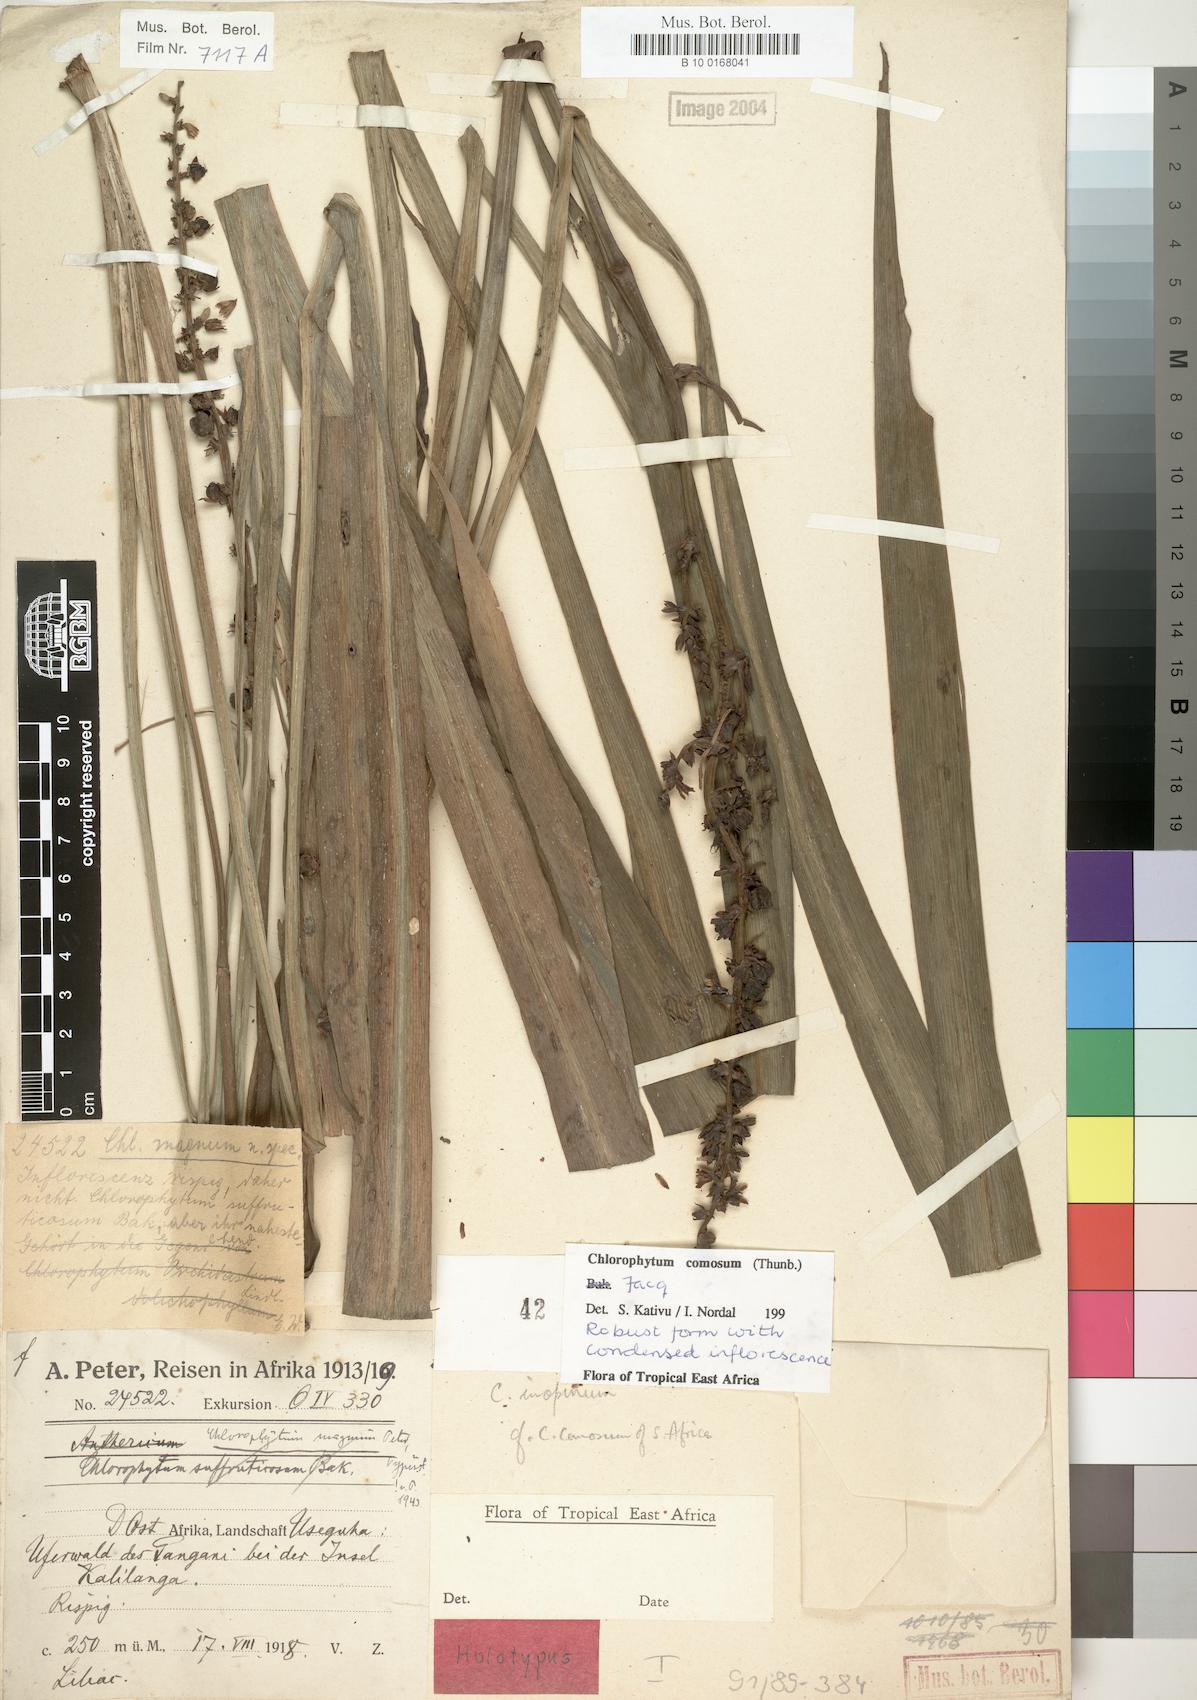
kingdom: Plantae
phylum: Tracheophyta
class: Liliopsida
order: Asparagales
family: Asparagaceae
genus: Chlorophytum
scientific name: Chlorophytum comosum
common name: Spider plant
